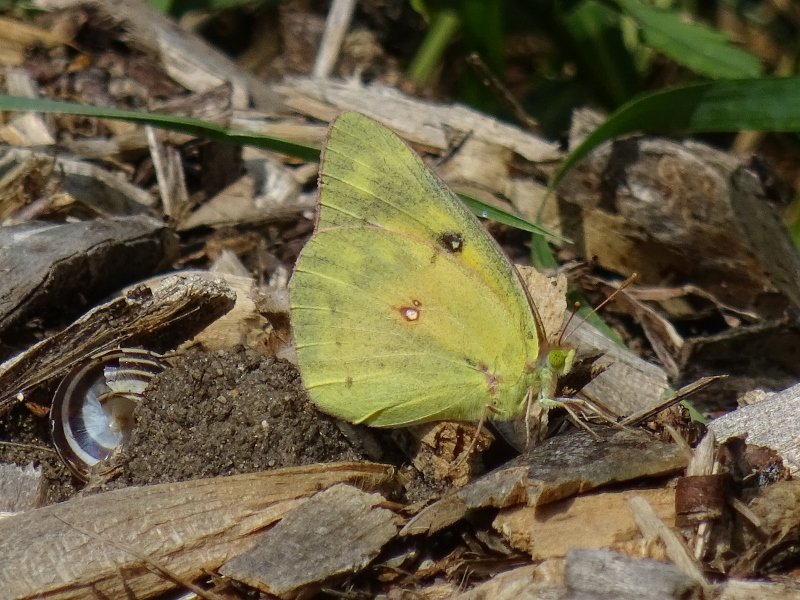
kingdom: Animalia
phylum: Arthropoda
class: Insecta
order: Lepidoptera
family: Pieridae
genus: Colias
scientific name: Colias philodice
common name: Clouded Sulphur
